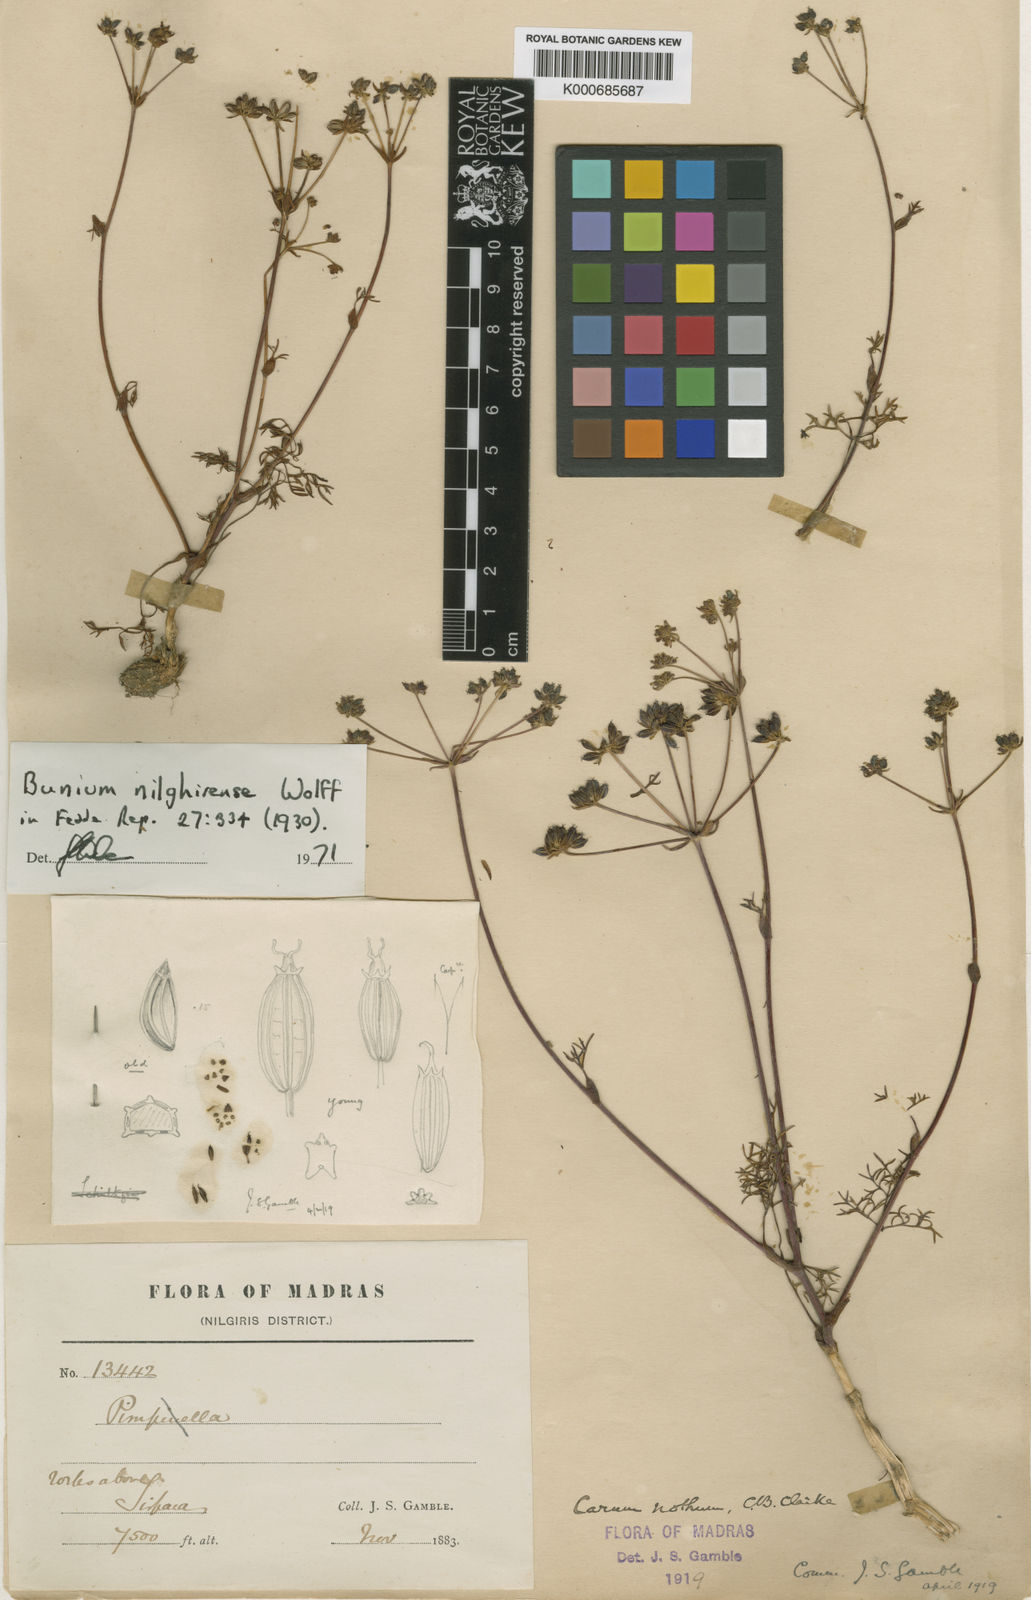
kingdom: Plantae
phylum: Tracheophyta
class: Magnoliopsida
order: Apiales
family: Apiaceae
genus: Bunium
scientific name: Bunium nothum
